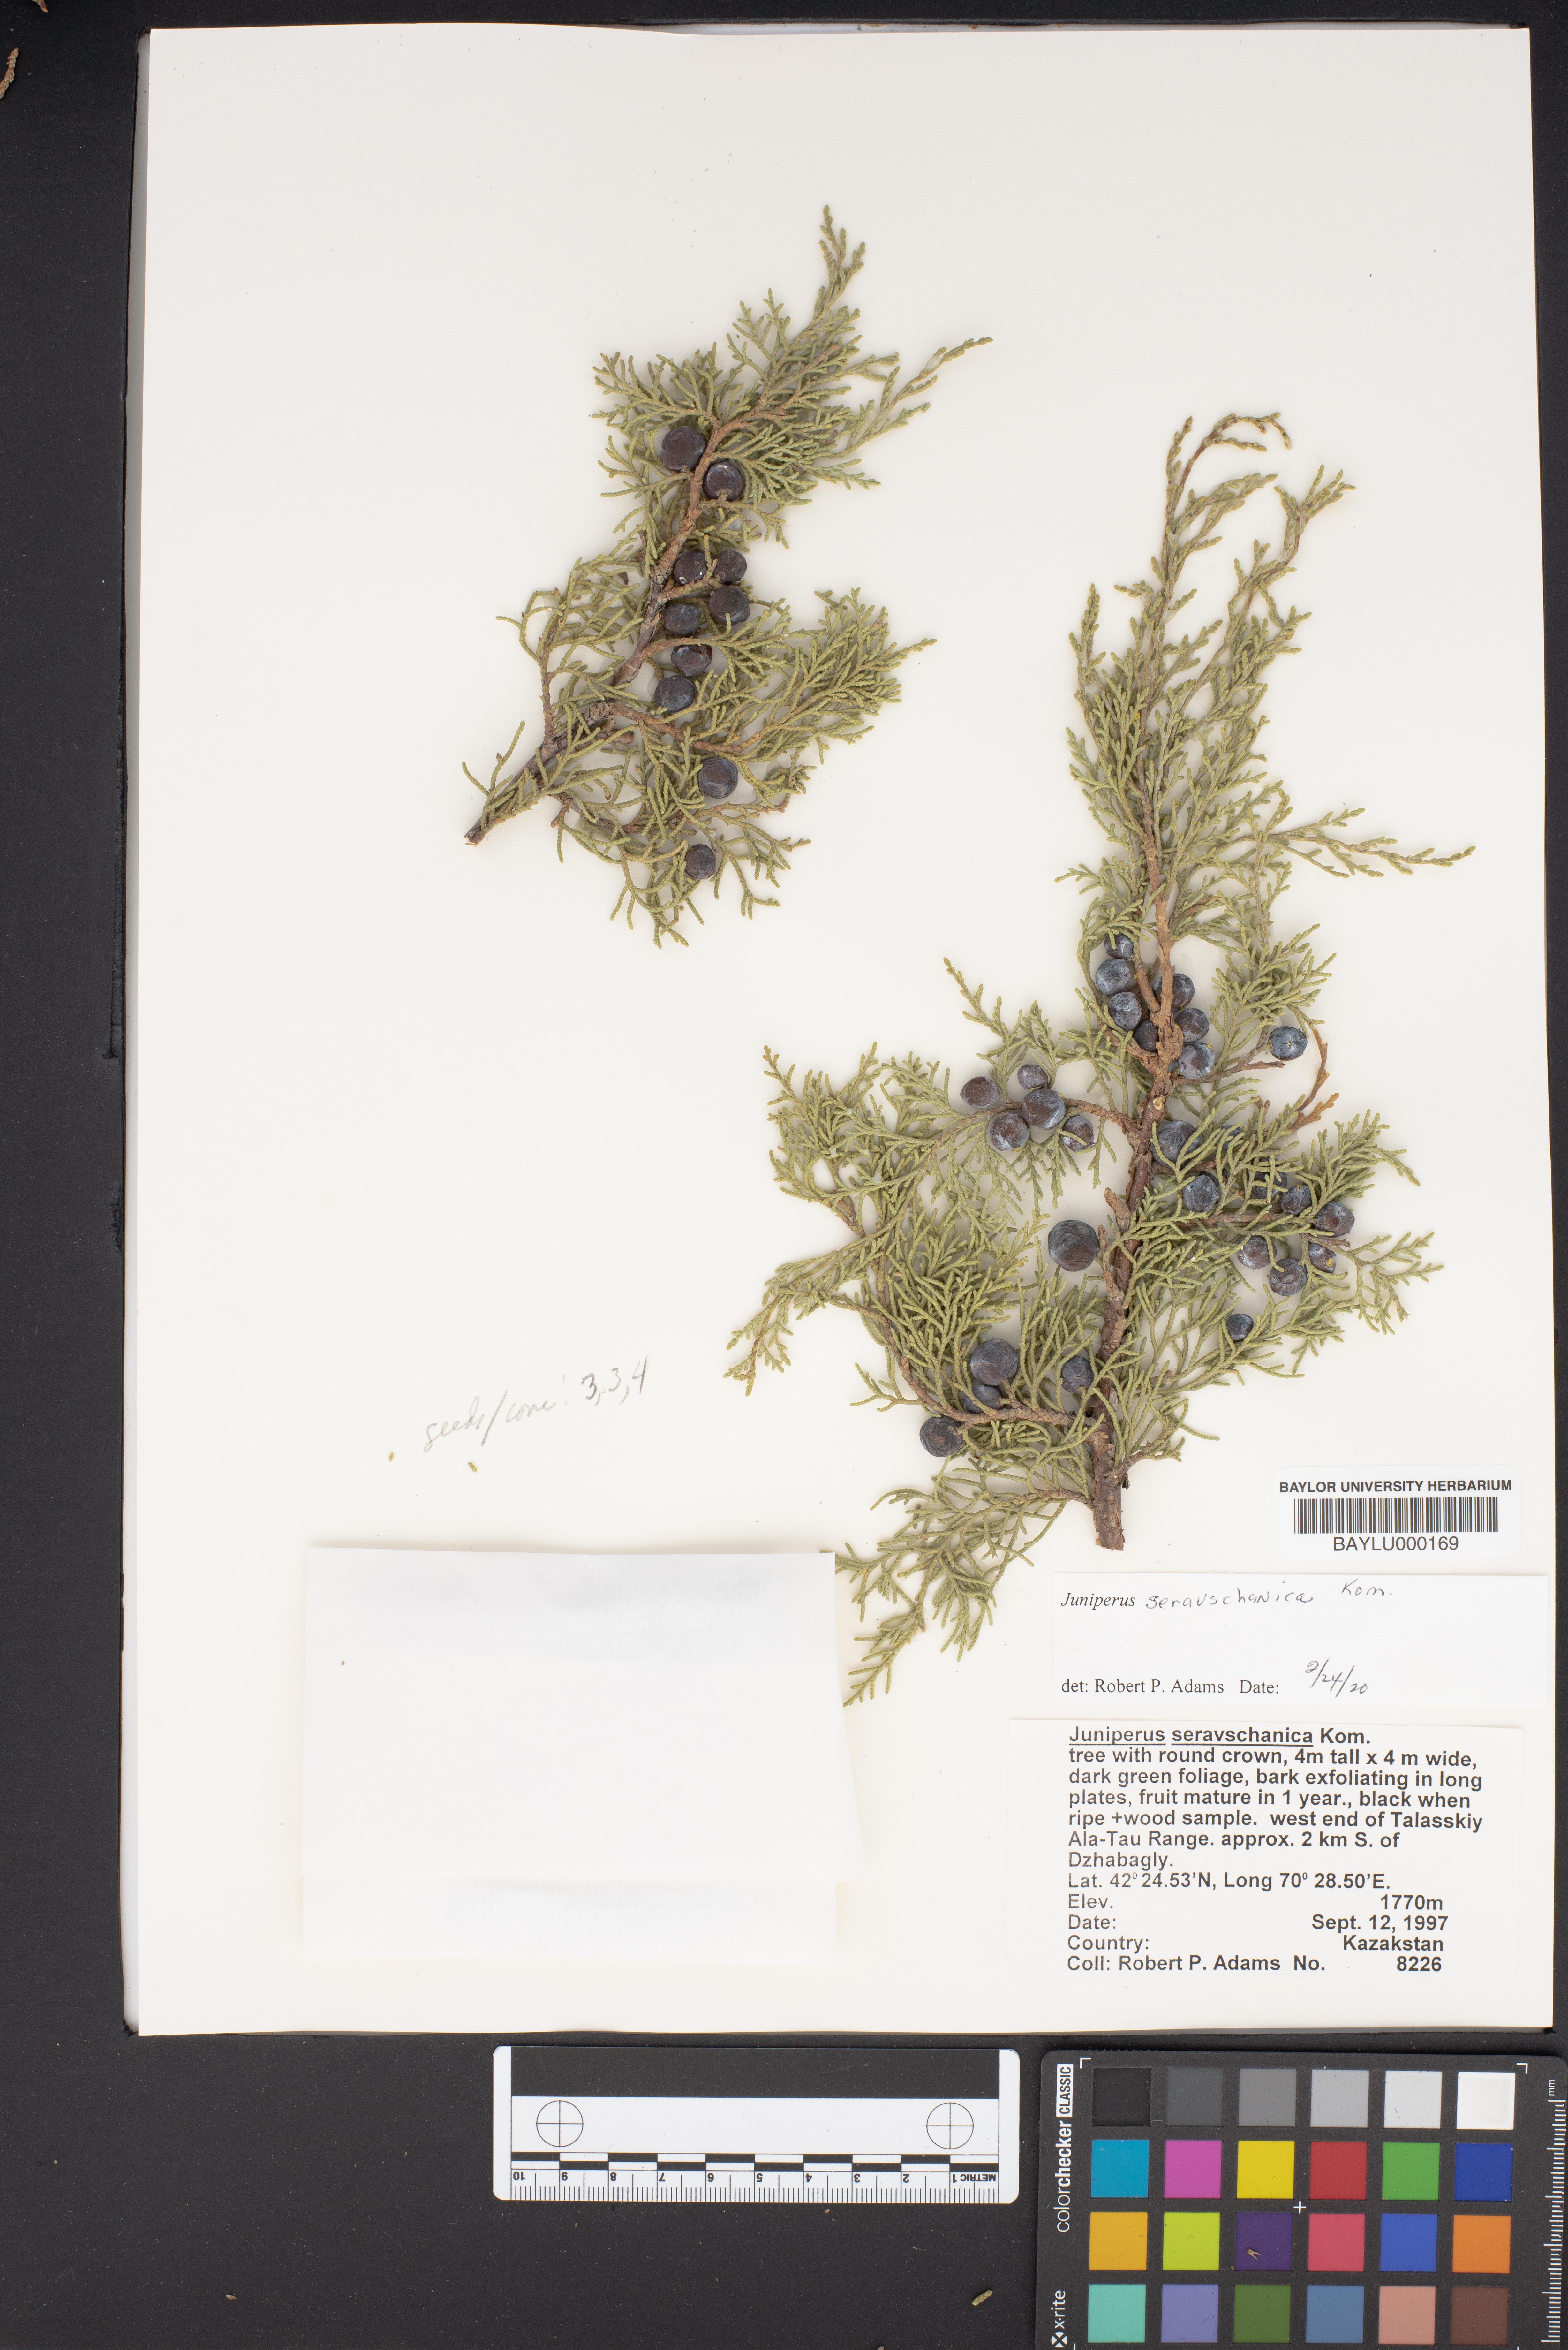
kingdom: Plantae
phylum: Tracheophyta
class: Pinopsida
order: Pinales
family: Cupressaceae
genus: Juniperus
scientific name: Juniperus excelsa
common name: Crimean juniper
